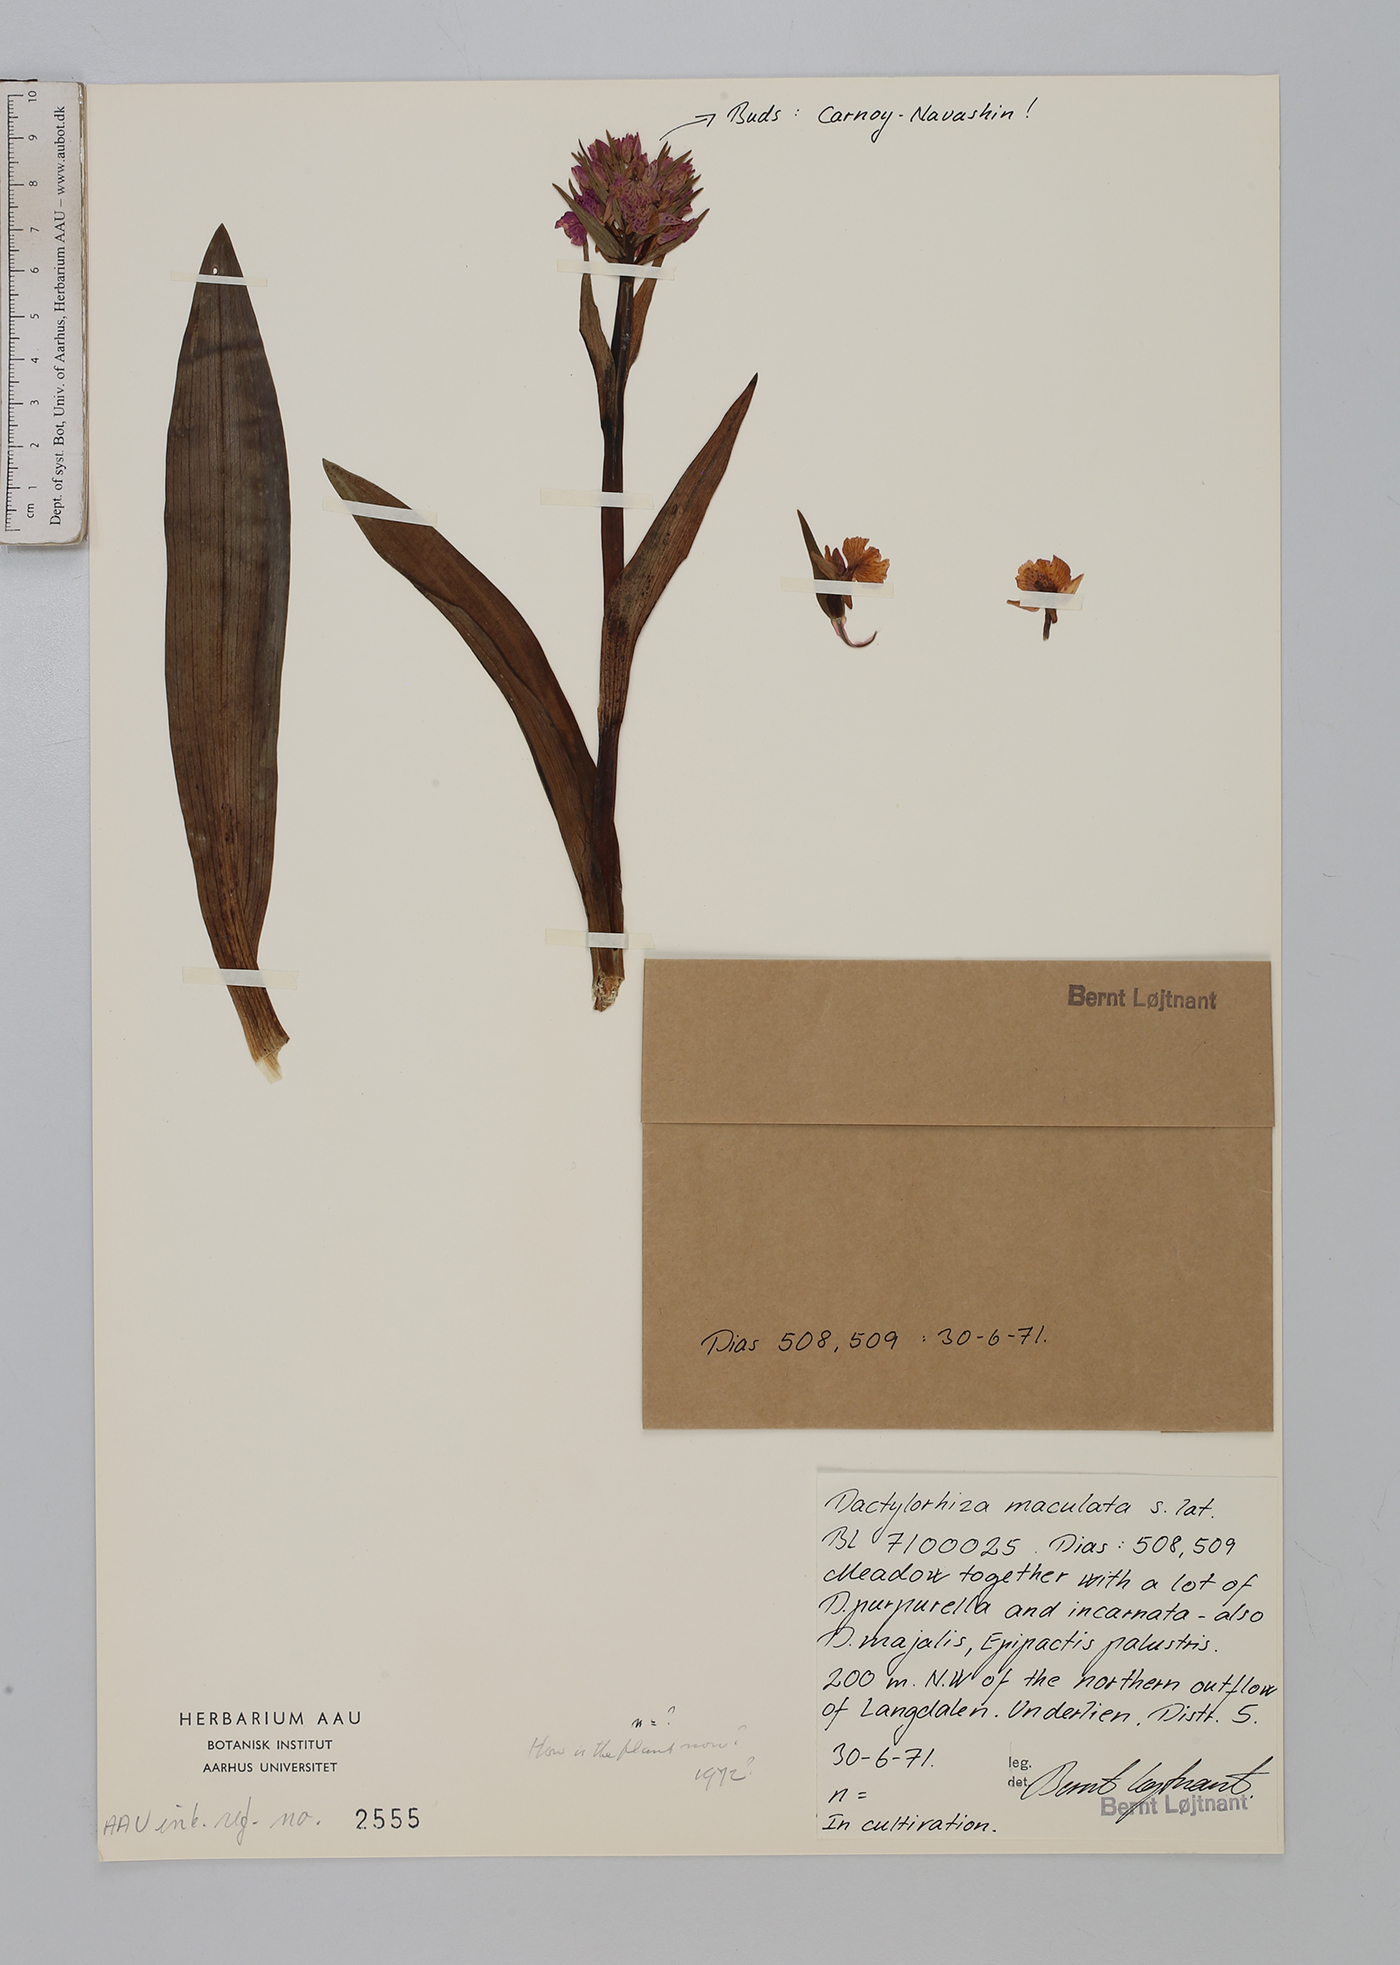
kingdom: Plantae
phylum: Tracheophyta
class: Liliopsida
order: Asparagales
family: Orchidaceae
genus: Dactylorhiza
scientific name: Dactylorhiza maculata
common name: Heath spotted-orchid
